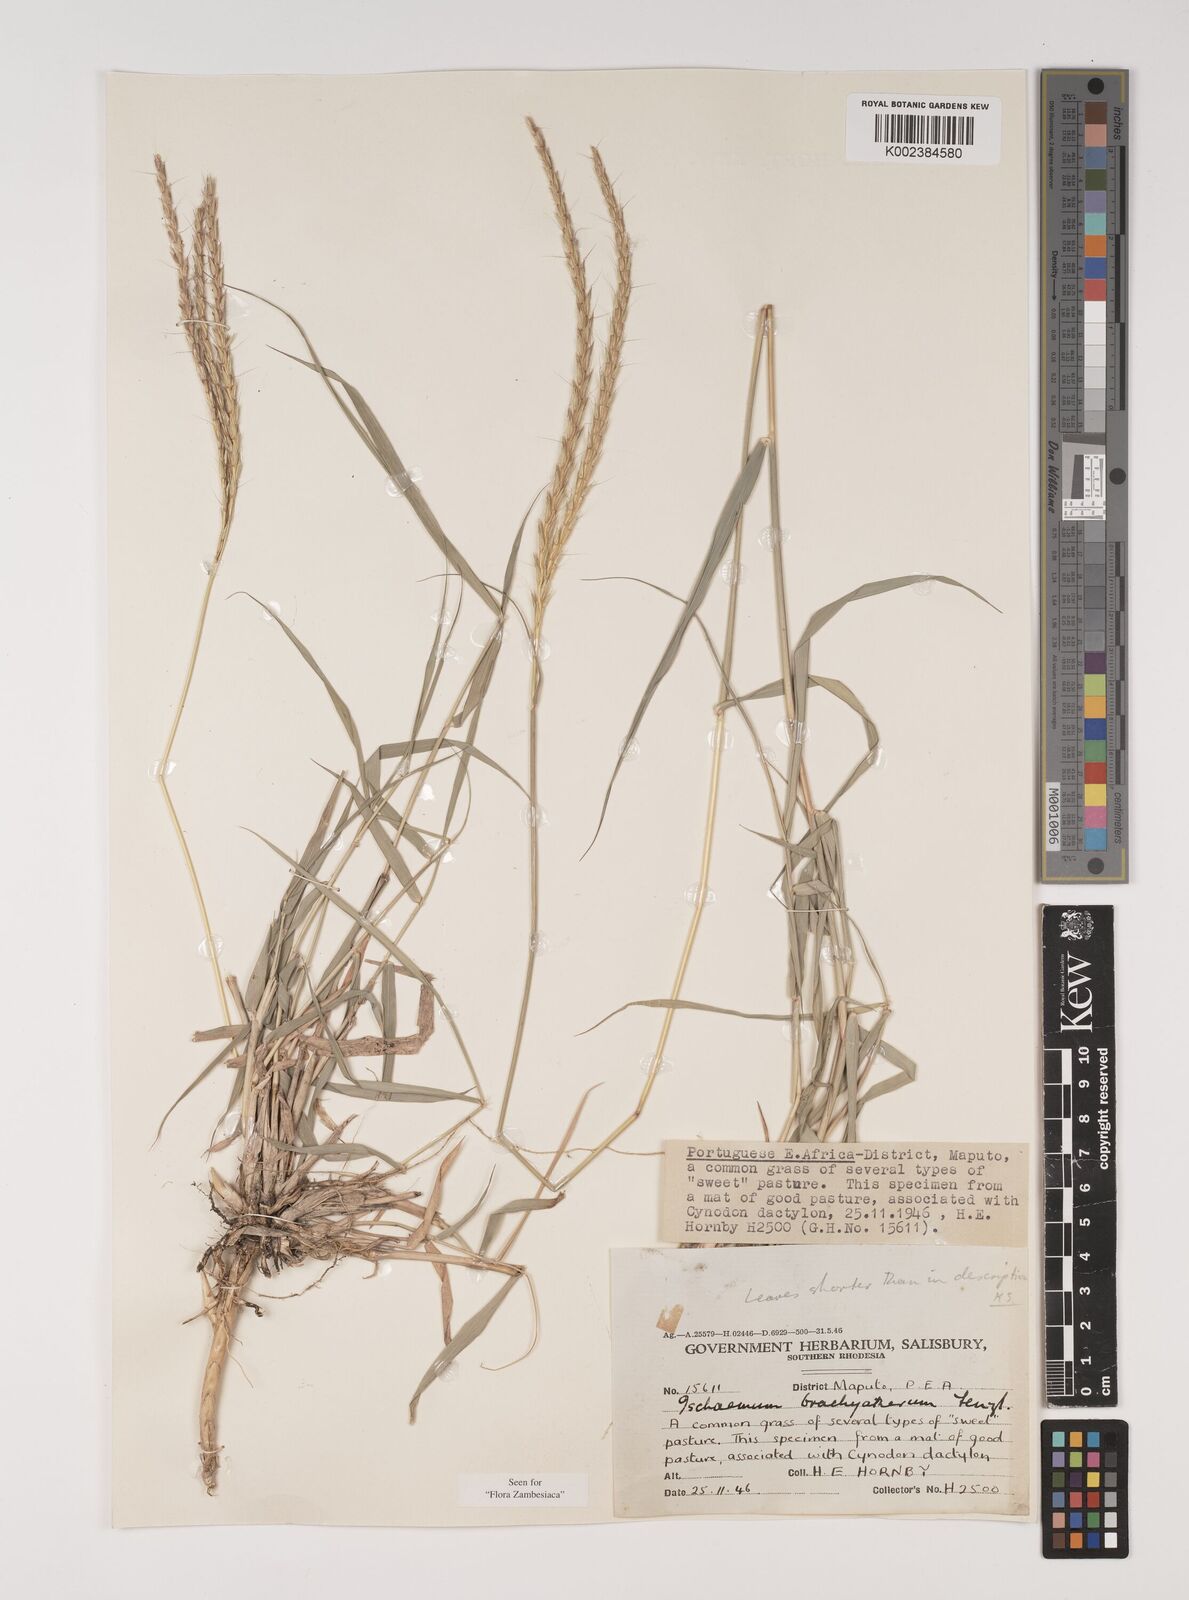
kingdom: Plantae
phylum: Tracheophyta
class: Liliopsida
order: Poales
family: Poaceae
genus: Ischaemum
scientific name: Ischaemum afrum
